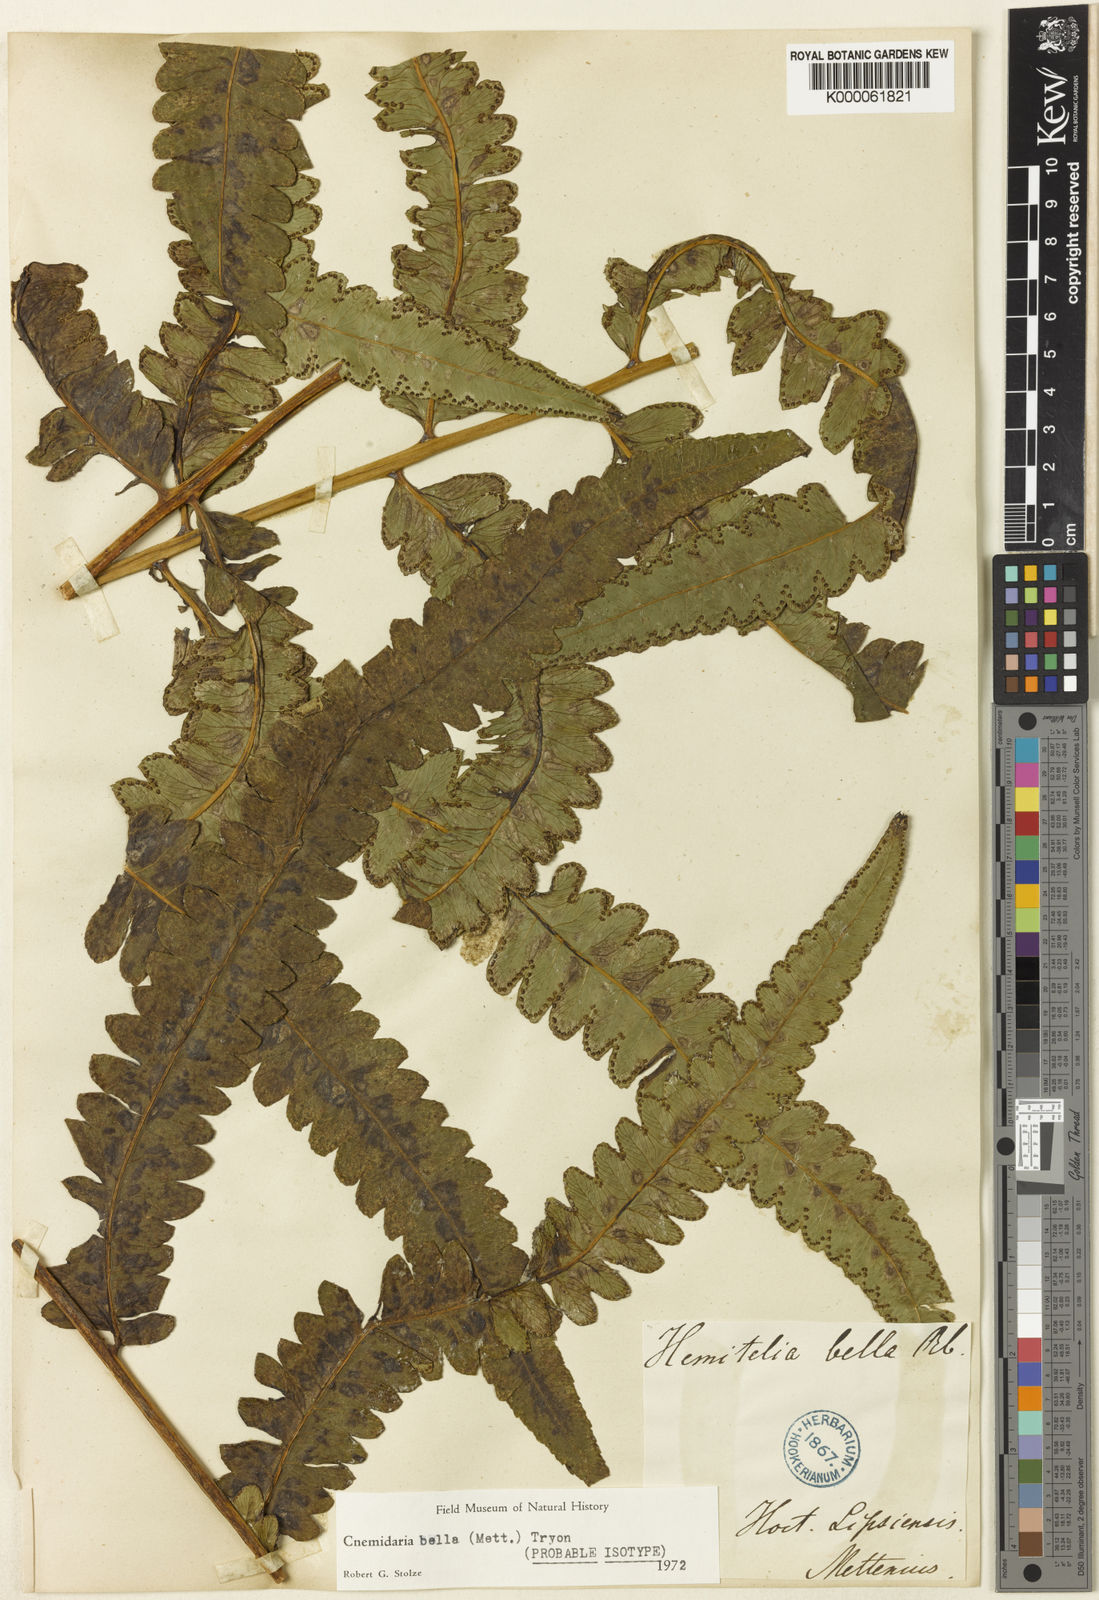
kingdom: Plantae
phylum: Tracheophyta
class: Polypodiopsida
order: Cyatheales
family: Cyatheaceae
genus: Cyathea
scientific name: Cyathea bella
